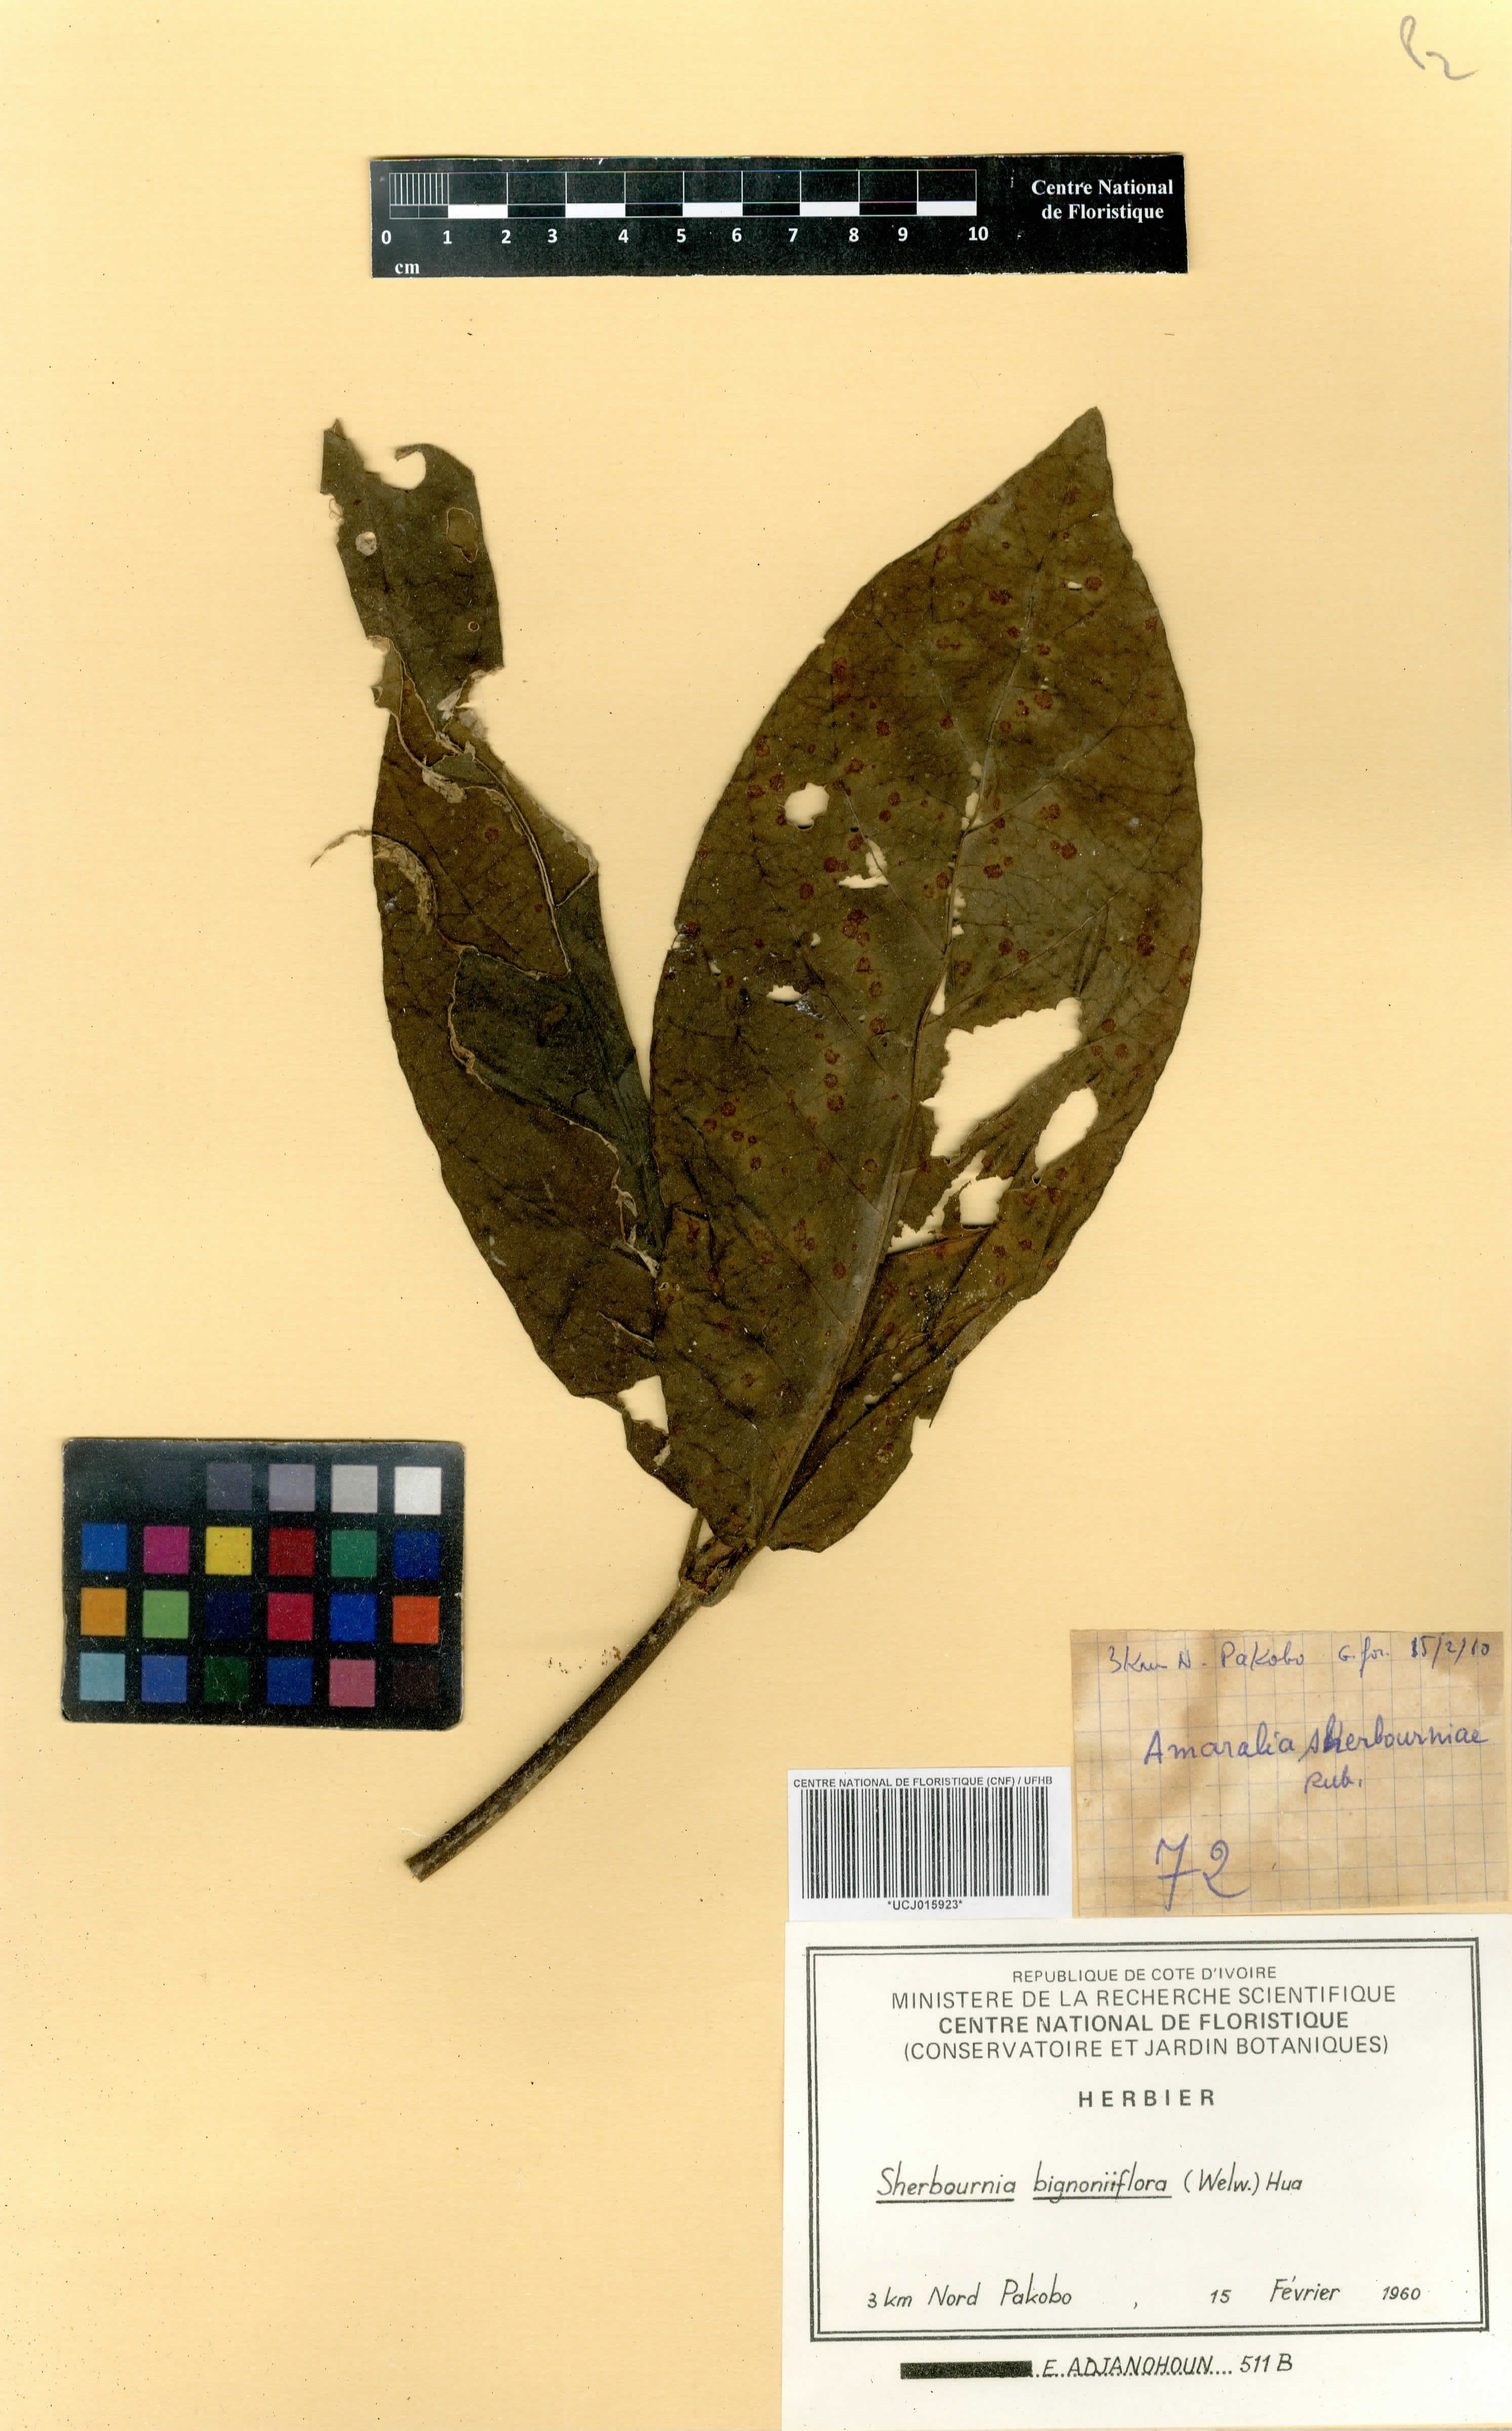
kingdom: Plantae
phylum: Tracheophyta
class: Magnoliopsida
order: Gentianales
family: Rubiaceae
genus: Sherbournia
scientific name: Sherbournia bignoniiflora
